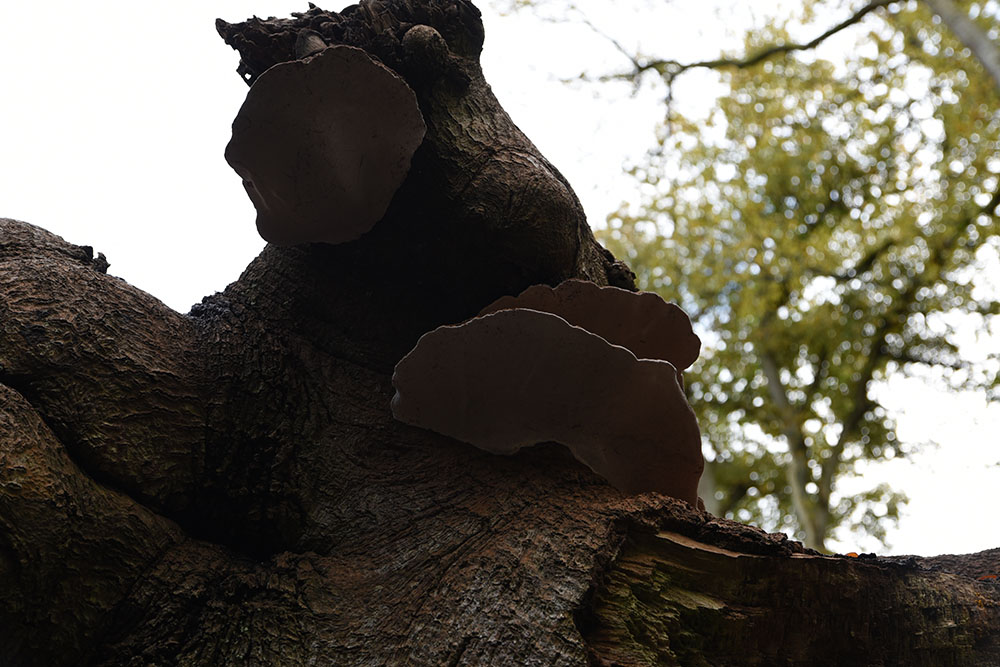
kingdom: Fungi
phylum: Basidiomycota
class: Agaricomycetes
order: Polyporales
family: Polyporaceae
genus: Ganoderma
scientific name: Ganoderma applanatum
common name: Artist's bracket
